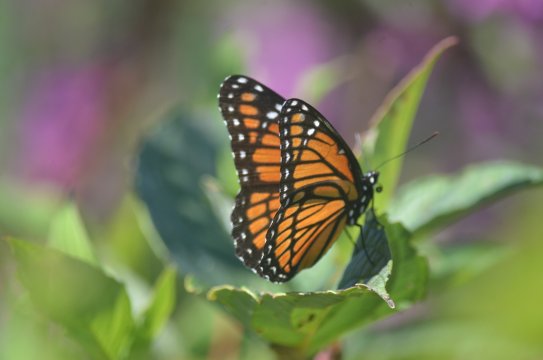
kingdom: Animalia
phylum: Arthropoda
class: Insecta
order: Lepidoptera
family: Nymphalidae
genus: Limenitis
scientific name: Limenitis archippus
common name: Viceroy
